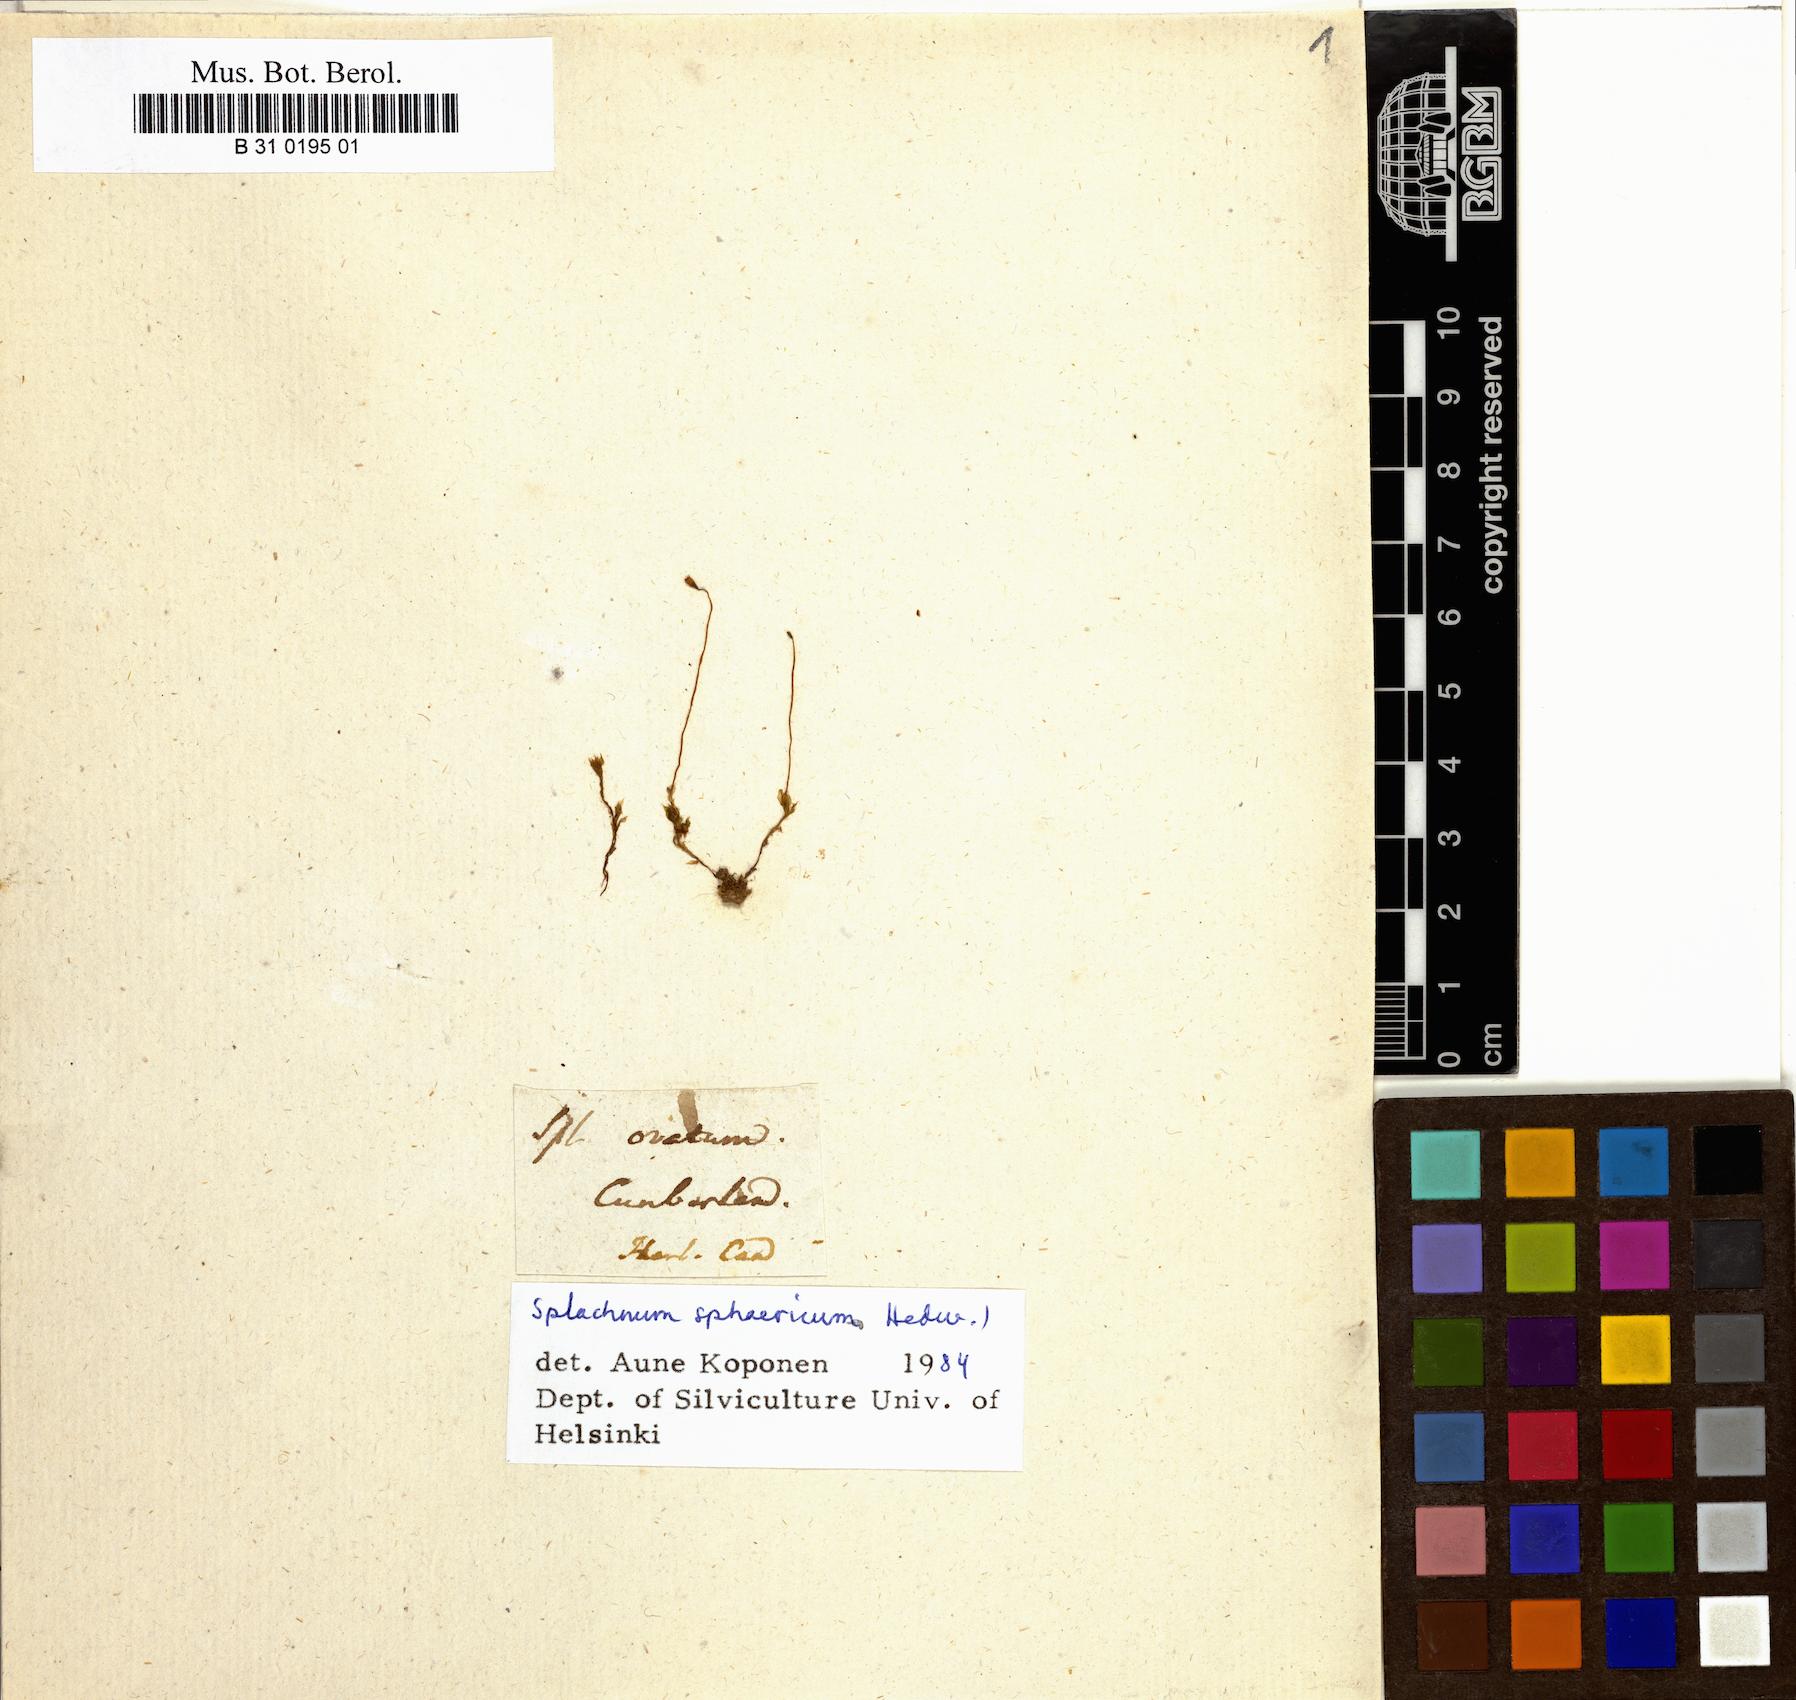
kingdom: Plantae
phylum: Bryophyta
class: Bryopsida
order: Splachnales
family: Splachnaceae
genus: Splachnum
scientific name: Splachnum sphaericum
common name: Round-fruited dung moss
